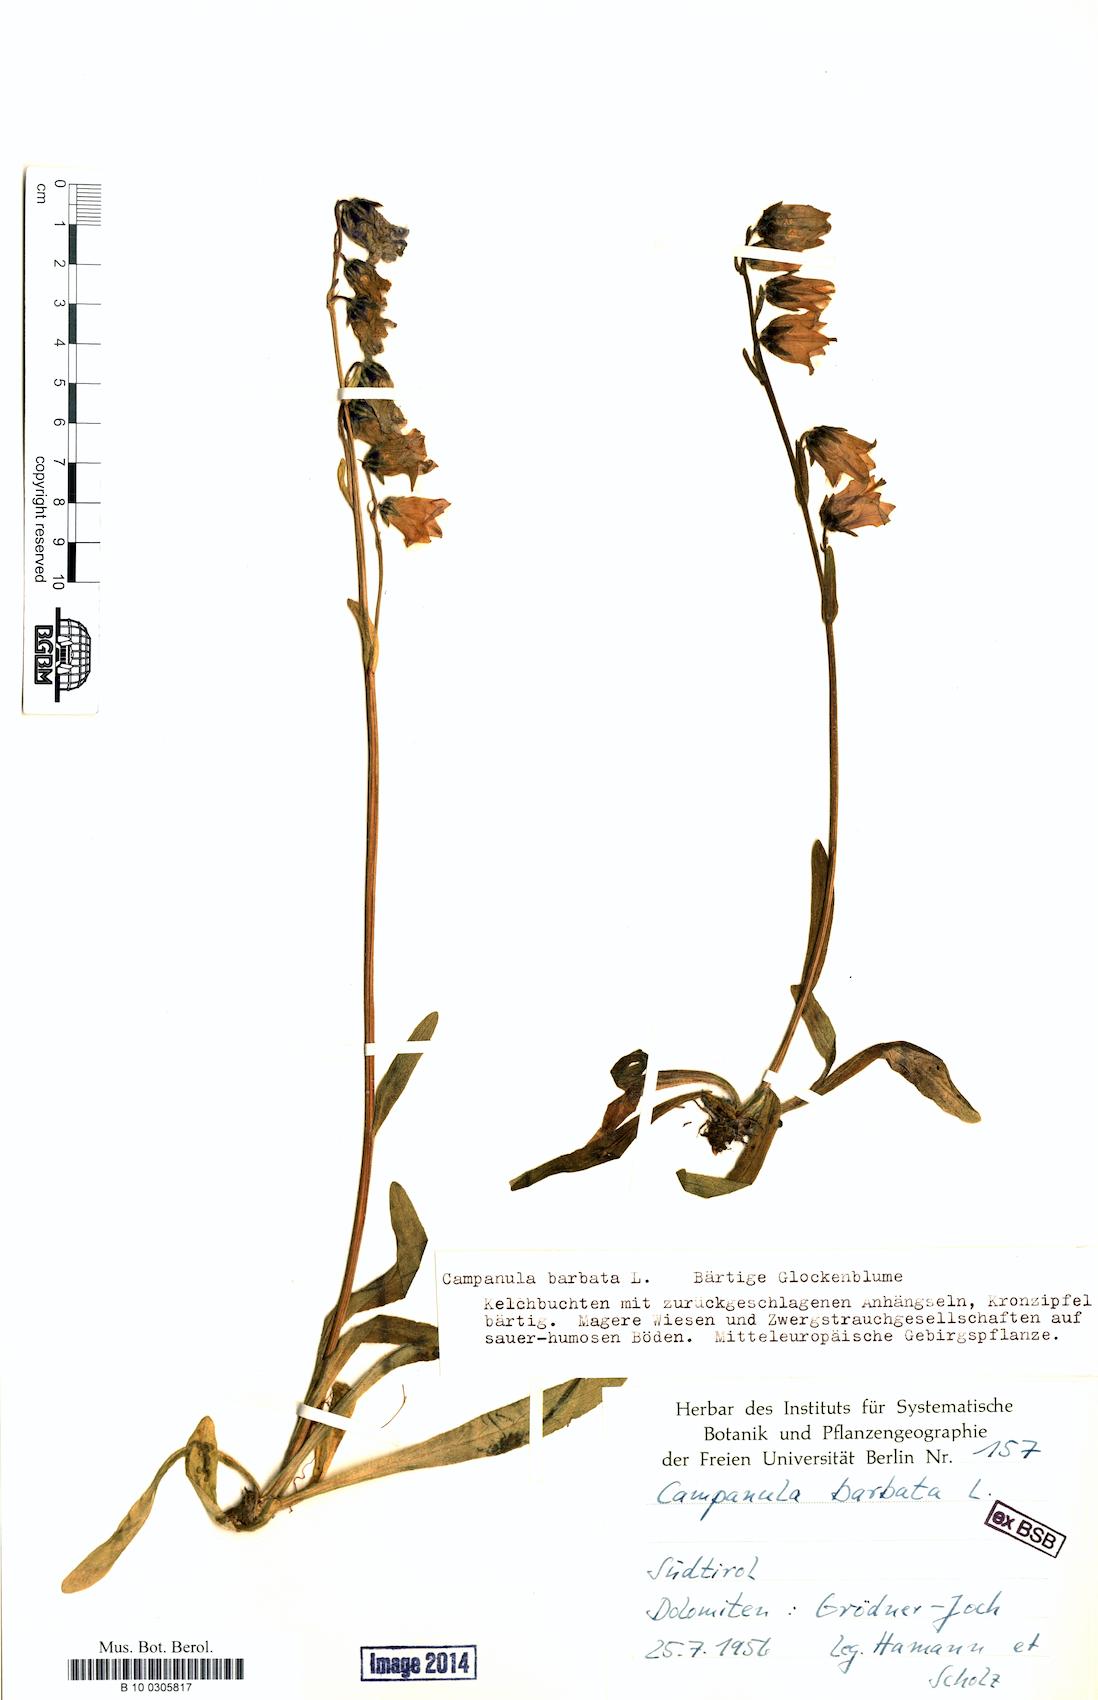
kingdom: Plantae
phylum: Tracheophyta
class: Magnoliopsida
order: Asterales
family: Campanulaceae
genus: Campanula
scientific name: Campanula barbata
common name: Bearded bellflower
